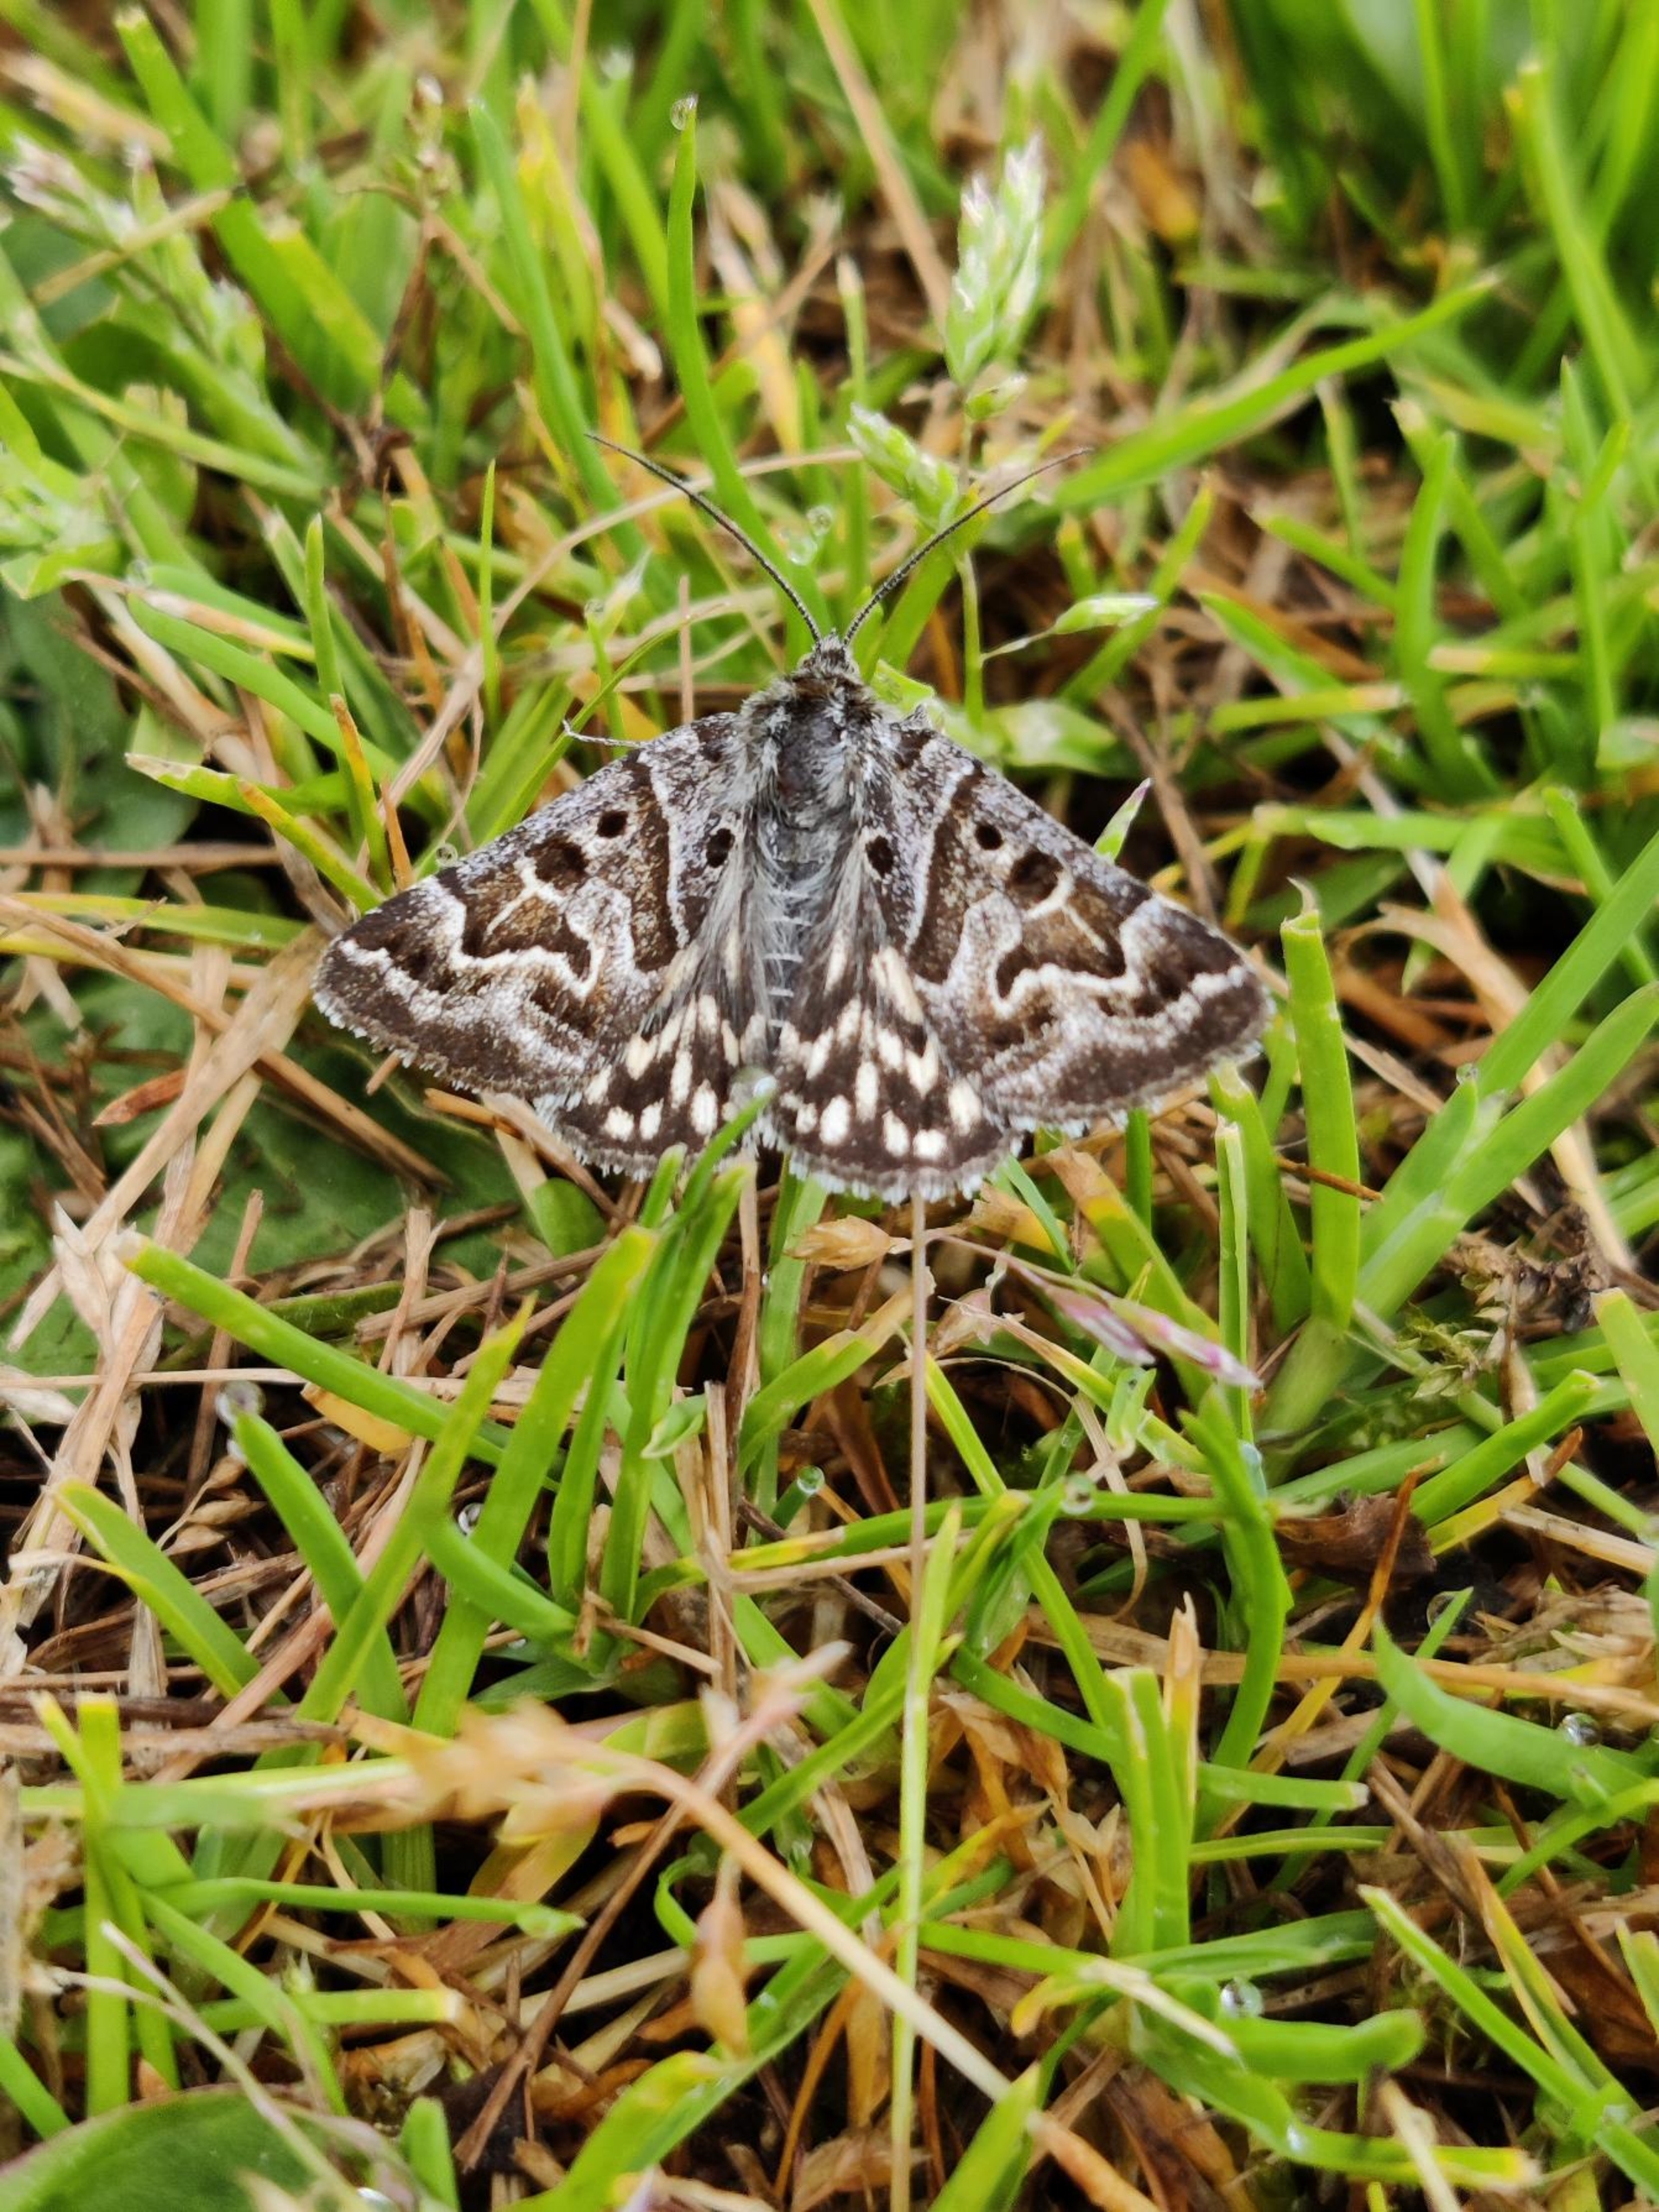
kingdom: Animalia
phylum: Arthropoda
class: Insecta
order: Lepidoptera
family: Erebidae
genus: Callistege
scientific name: Callistege mi
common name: Marmoreret kløverugle
